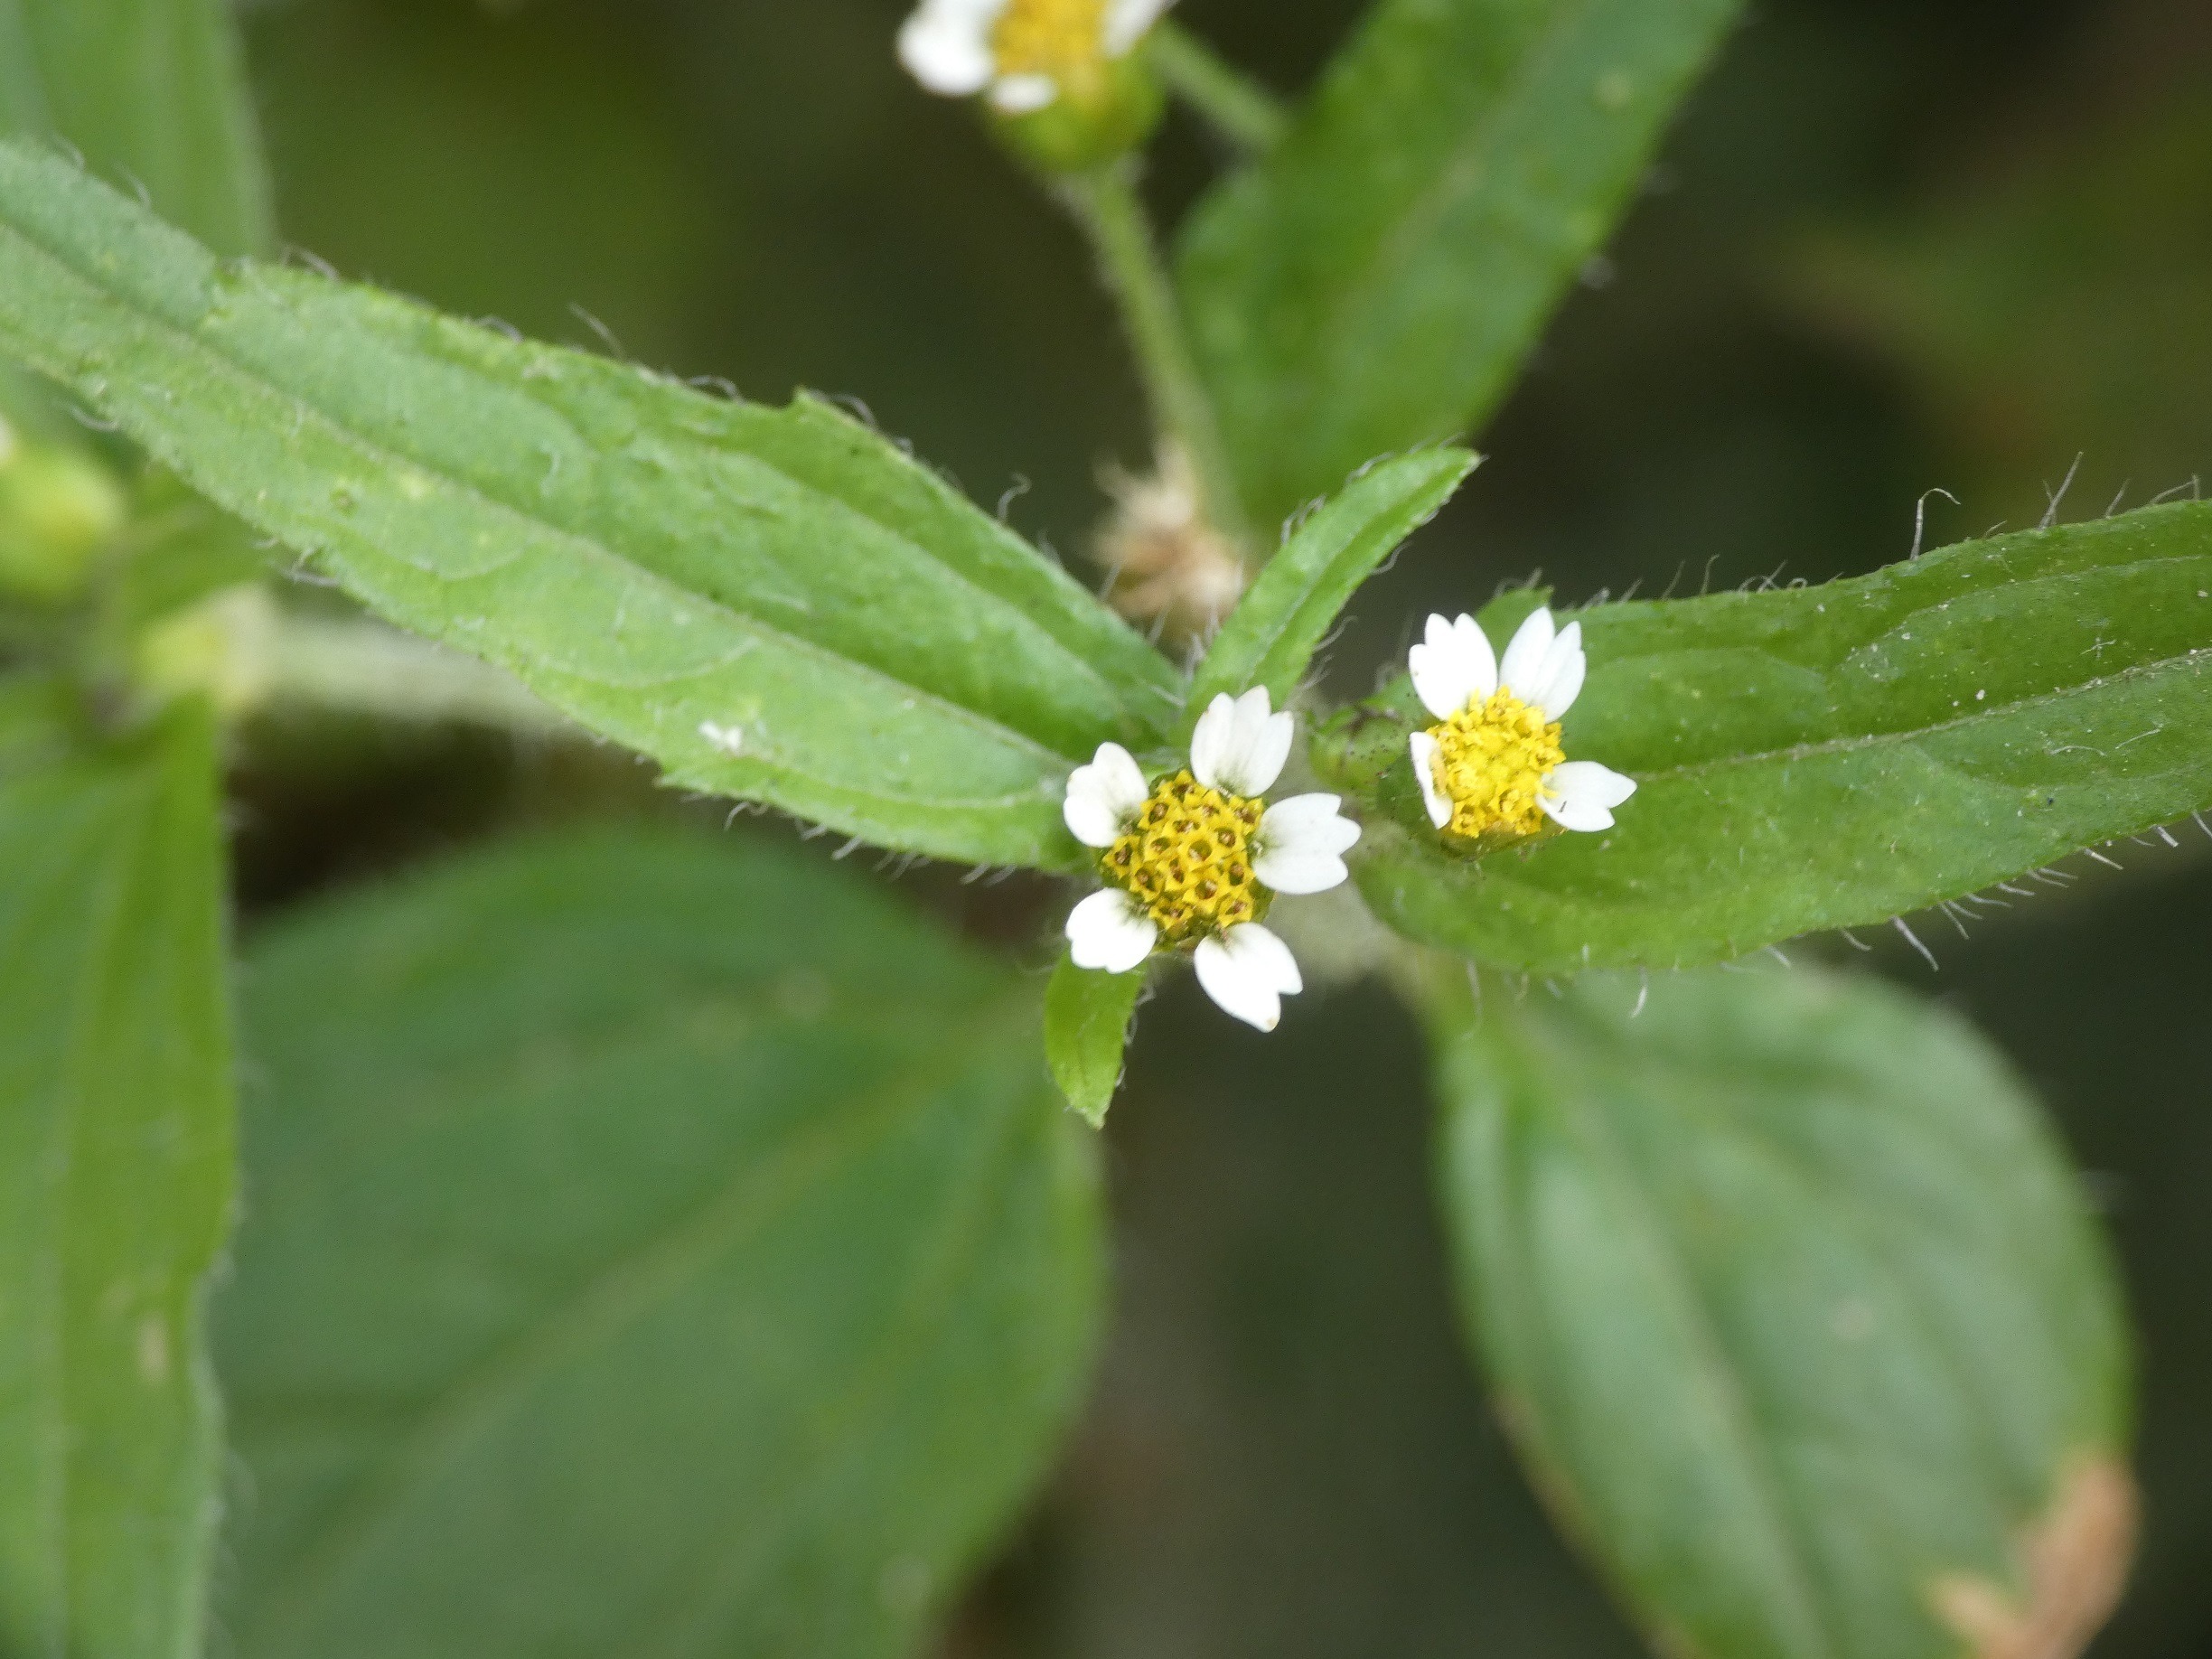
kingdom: Plantae
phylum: Tracheophyta
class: Magnoliopsida
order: Asterales
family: Asteraceae
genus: Galinsoga
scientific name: Galinsoga quadriradiata
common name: Kirtel-kortstråle
